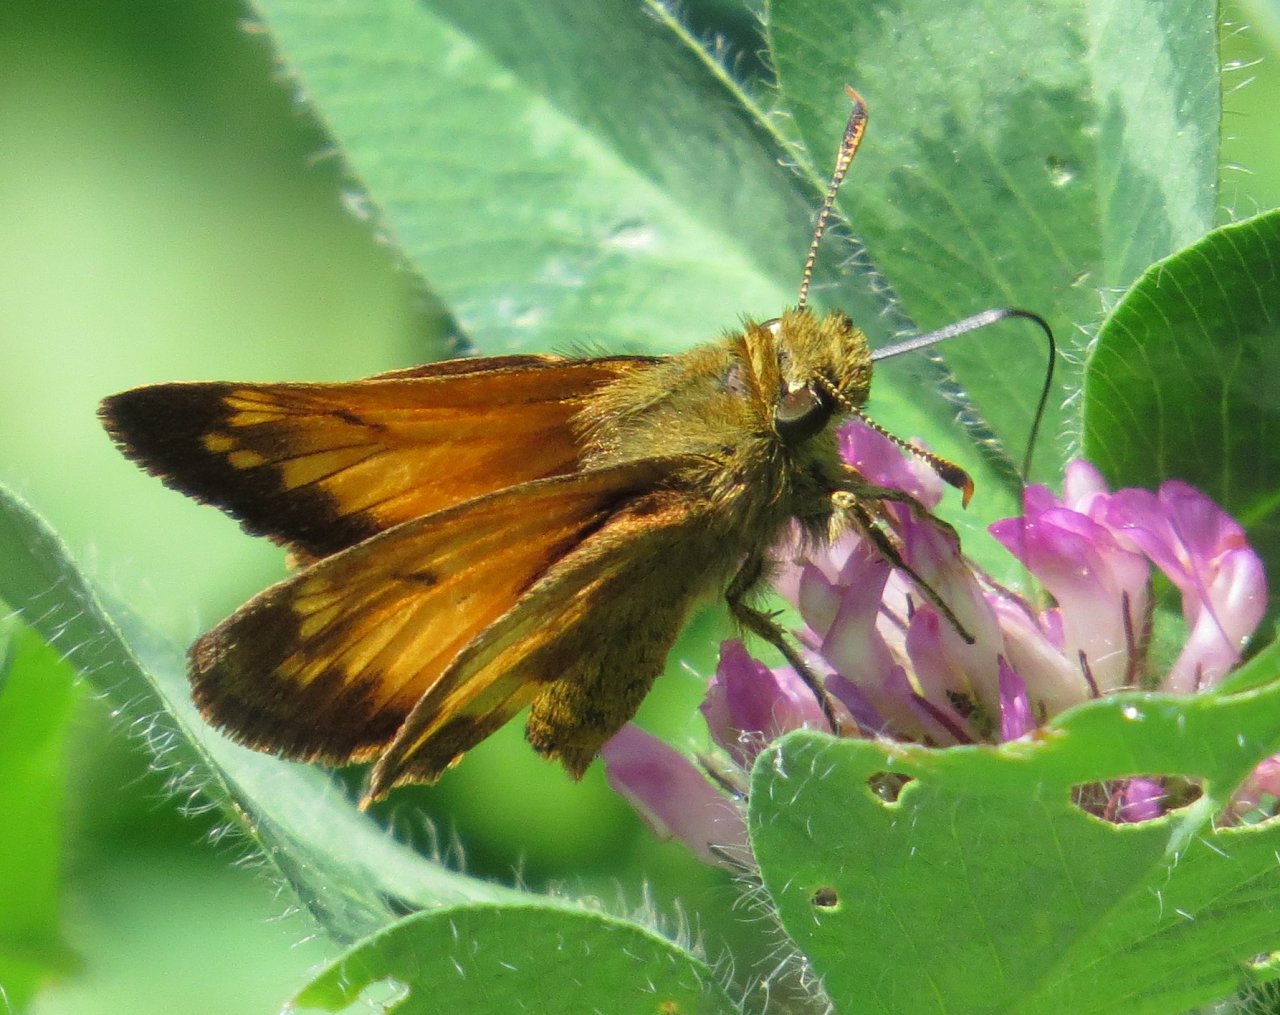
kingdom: Animalia
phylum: Arthropoda
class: Insecta
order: Lepidoptera
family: Hesperiidae
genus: Lon
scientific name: Lon hobomok
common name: Hobomok Skipper
